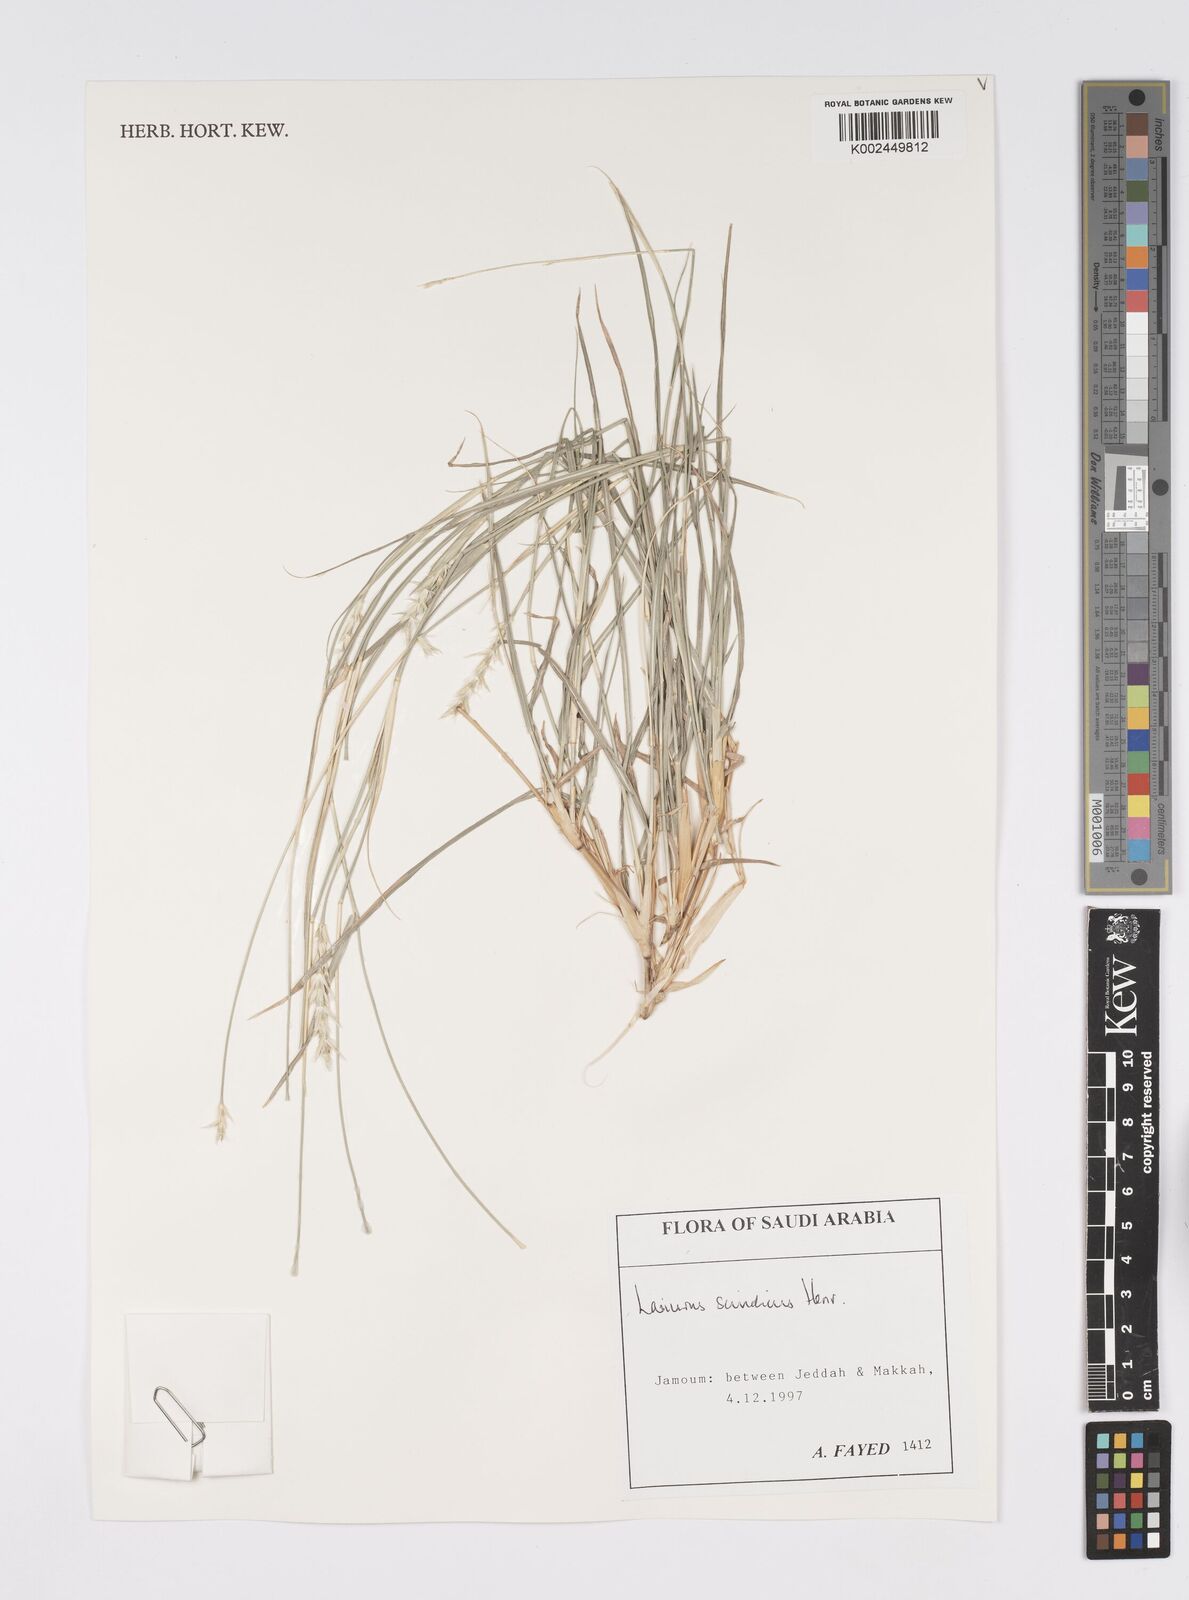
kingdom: Plantae
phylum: Tracheophyta
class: Liliopsida
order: Poales
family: Poaceae
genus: Lasiurus
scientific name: Lasiurus scindicus
